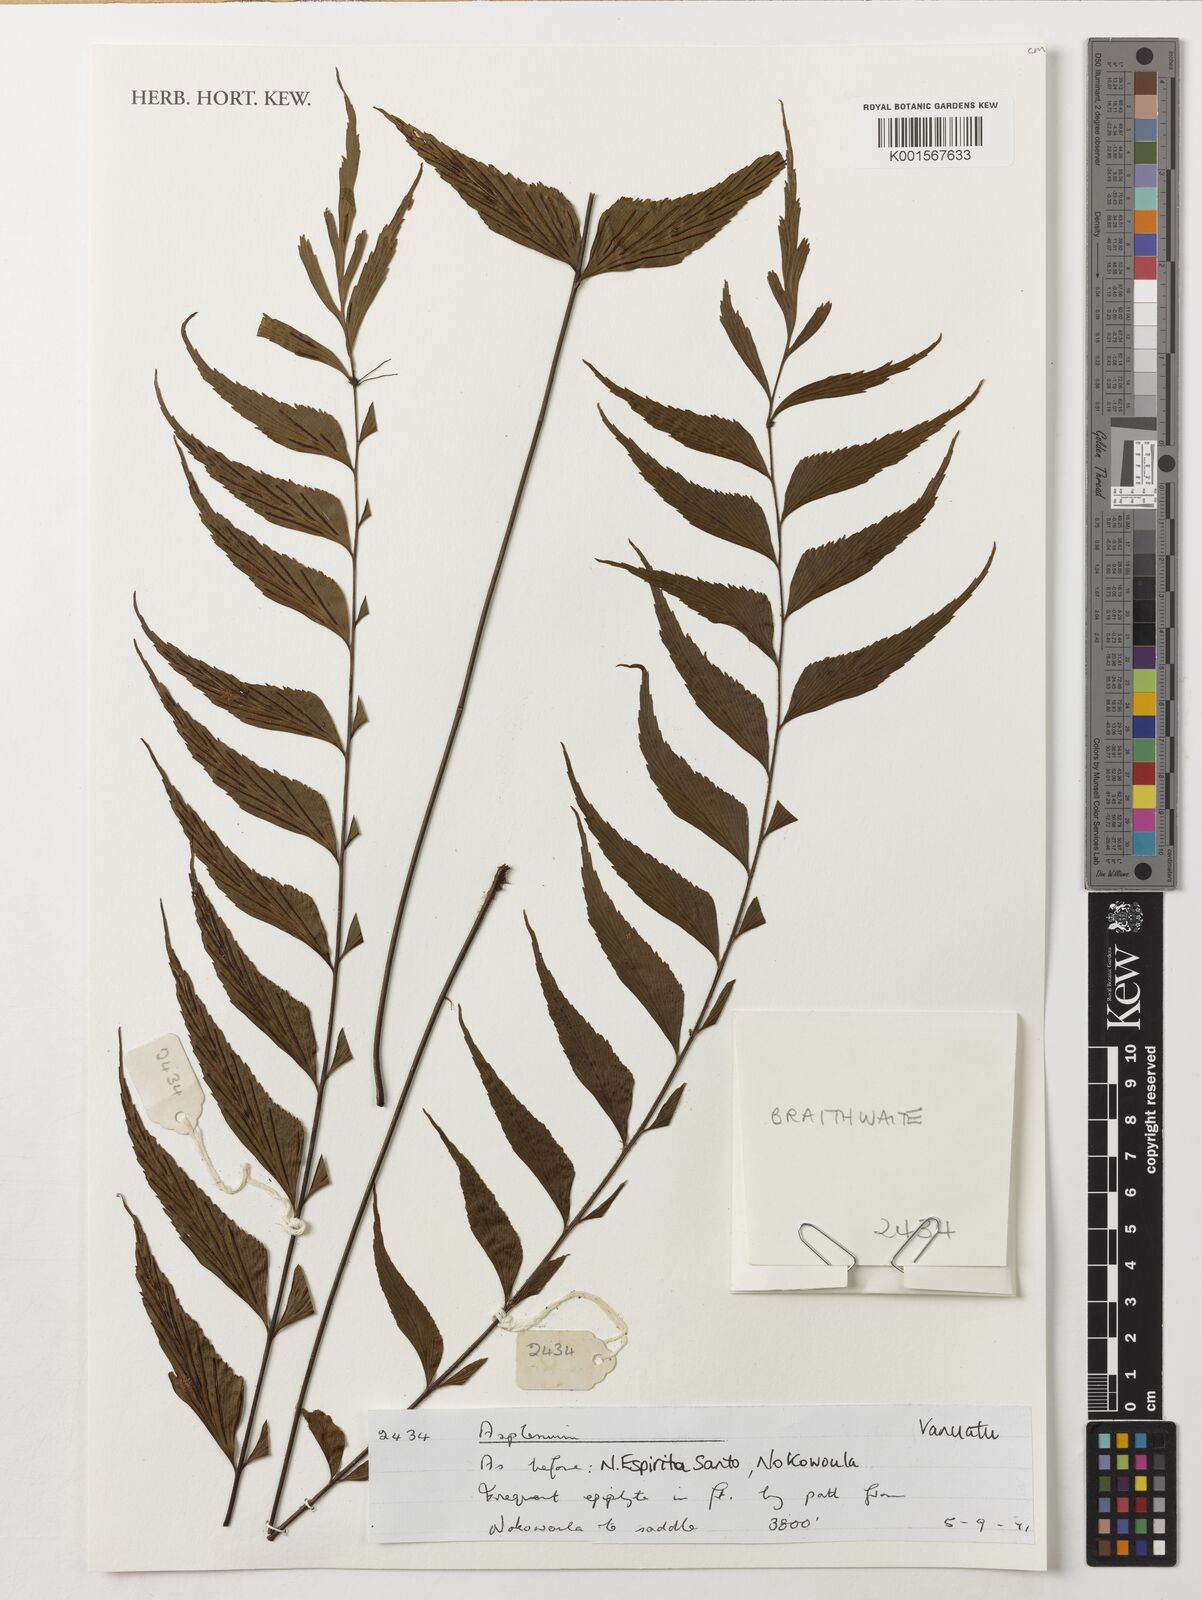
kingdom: Plantae
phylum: Tracheophyta
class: Polypodiopsida
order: Polypodiales
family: Aspleniaceae
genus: Asplenium
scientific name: Asplenium
